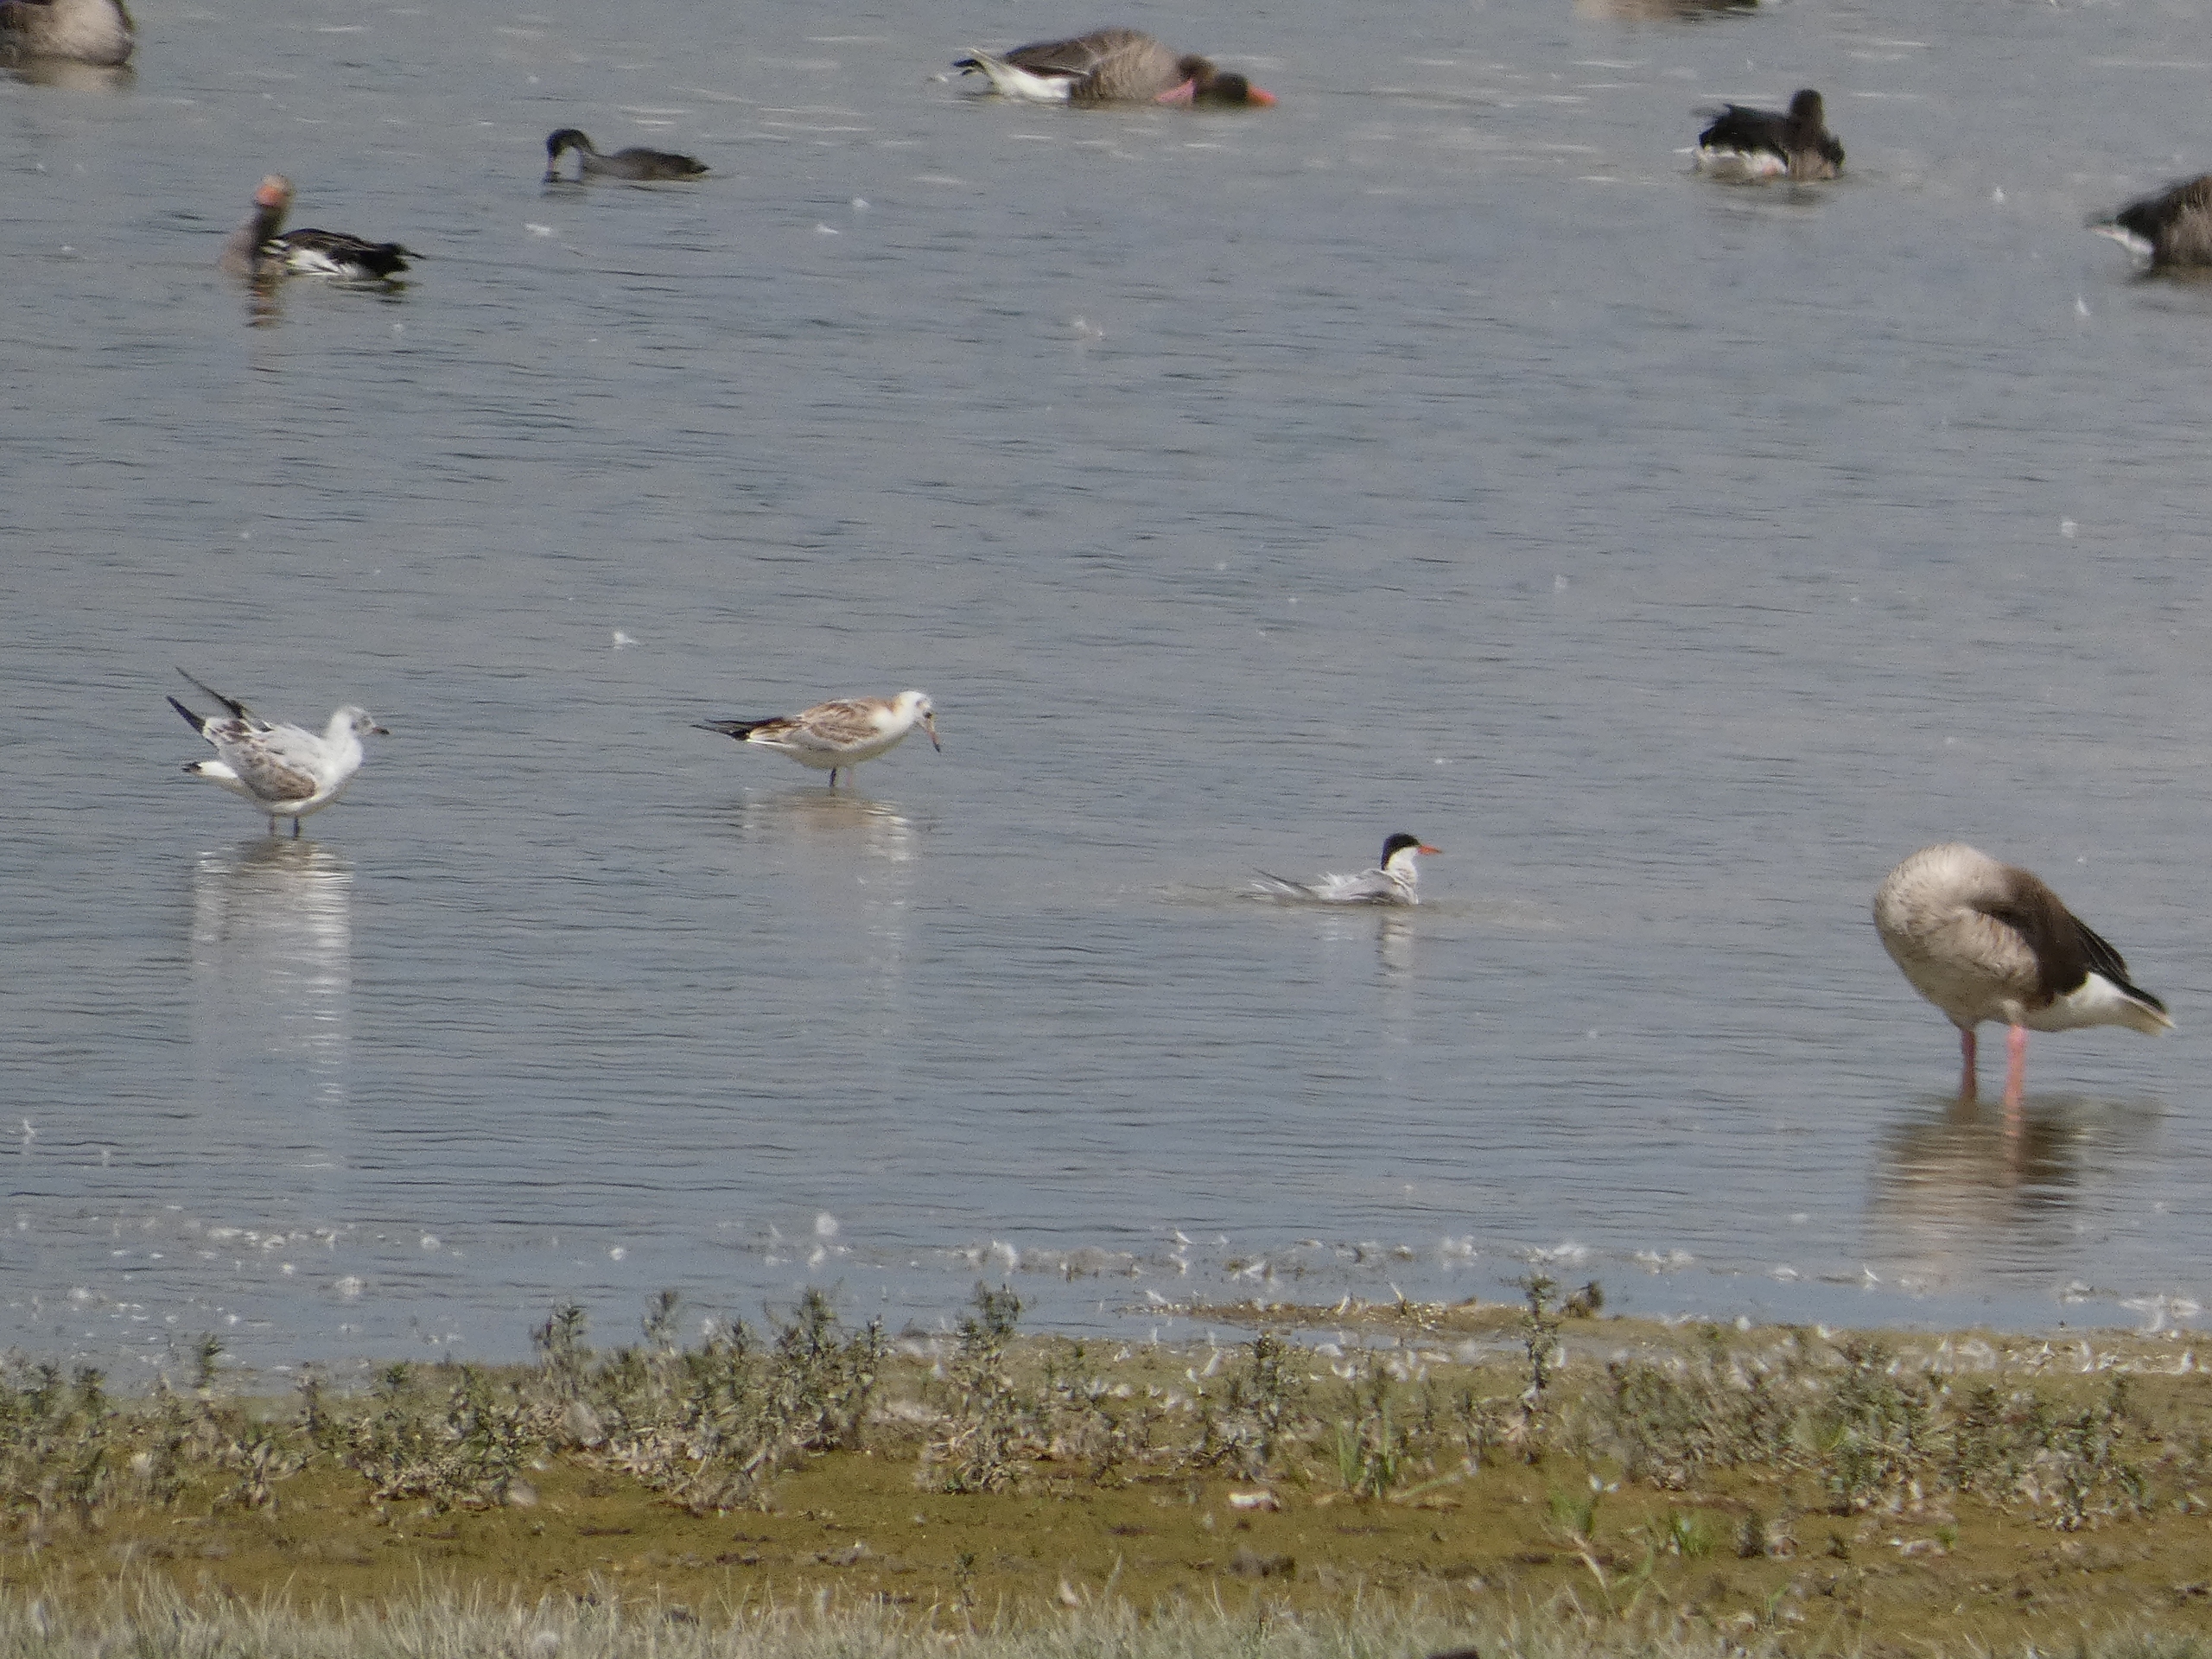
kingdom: Animalia
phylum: Chordata
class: Aves
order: Charadriiformes
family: Laridae
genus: Chroicocephalus
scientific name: Chroicocephalus ridibundus
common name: Hættemåge
